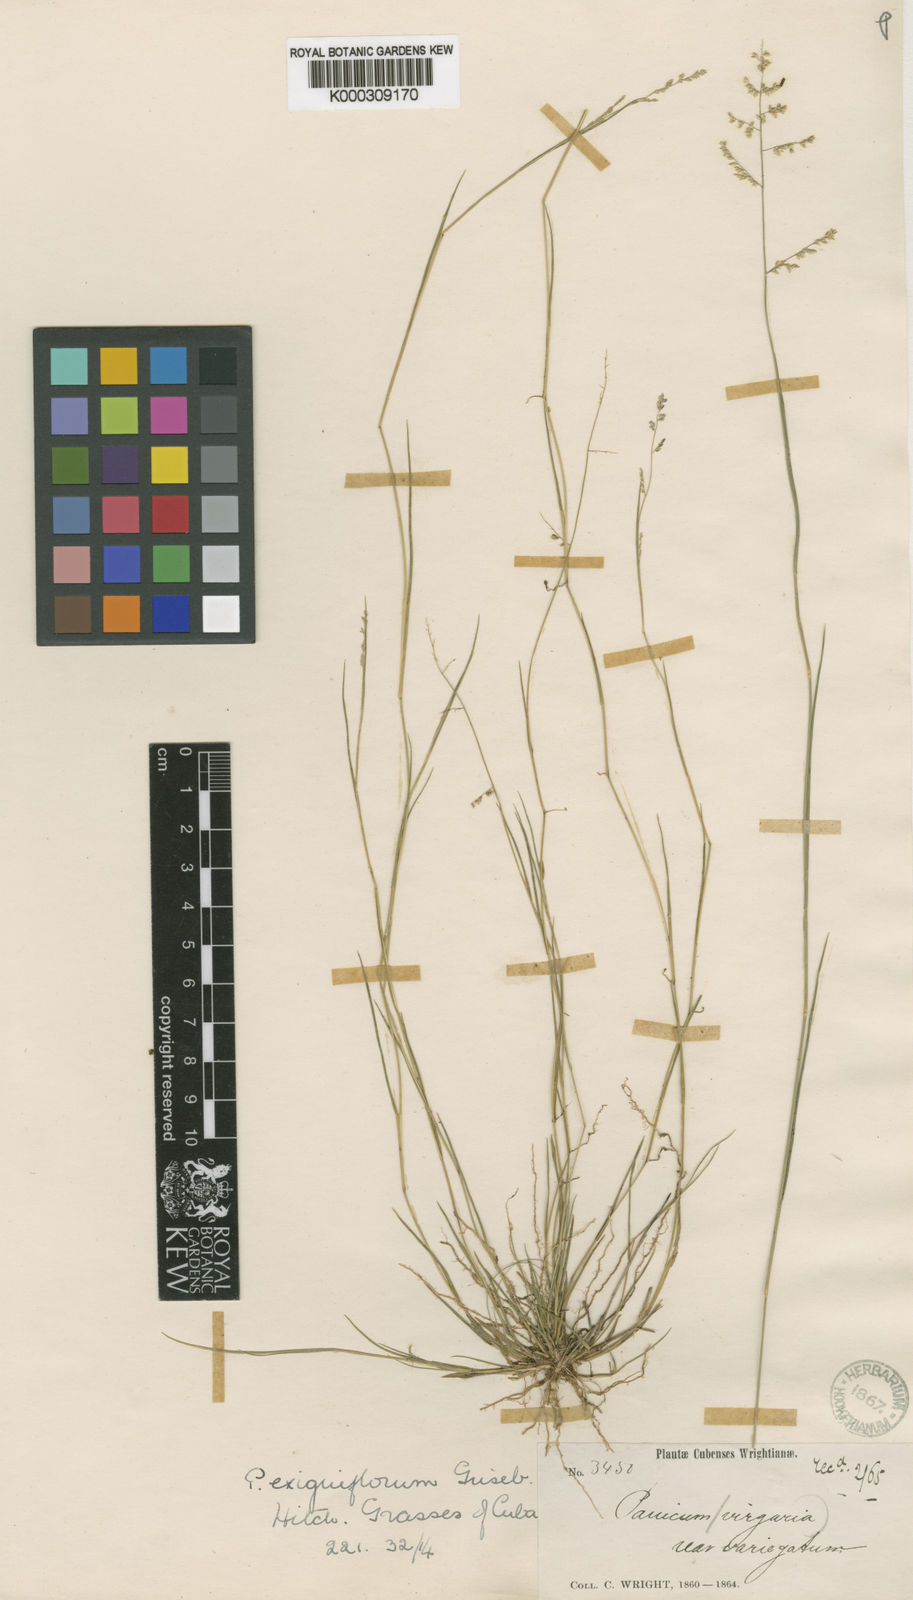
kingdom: Plantae
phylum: Tracheophyta
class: Liliopsida
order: Poales
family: Poaceae
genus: Steinchisma
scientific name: Steinchisma
